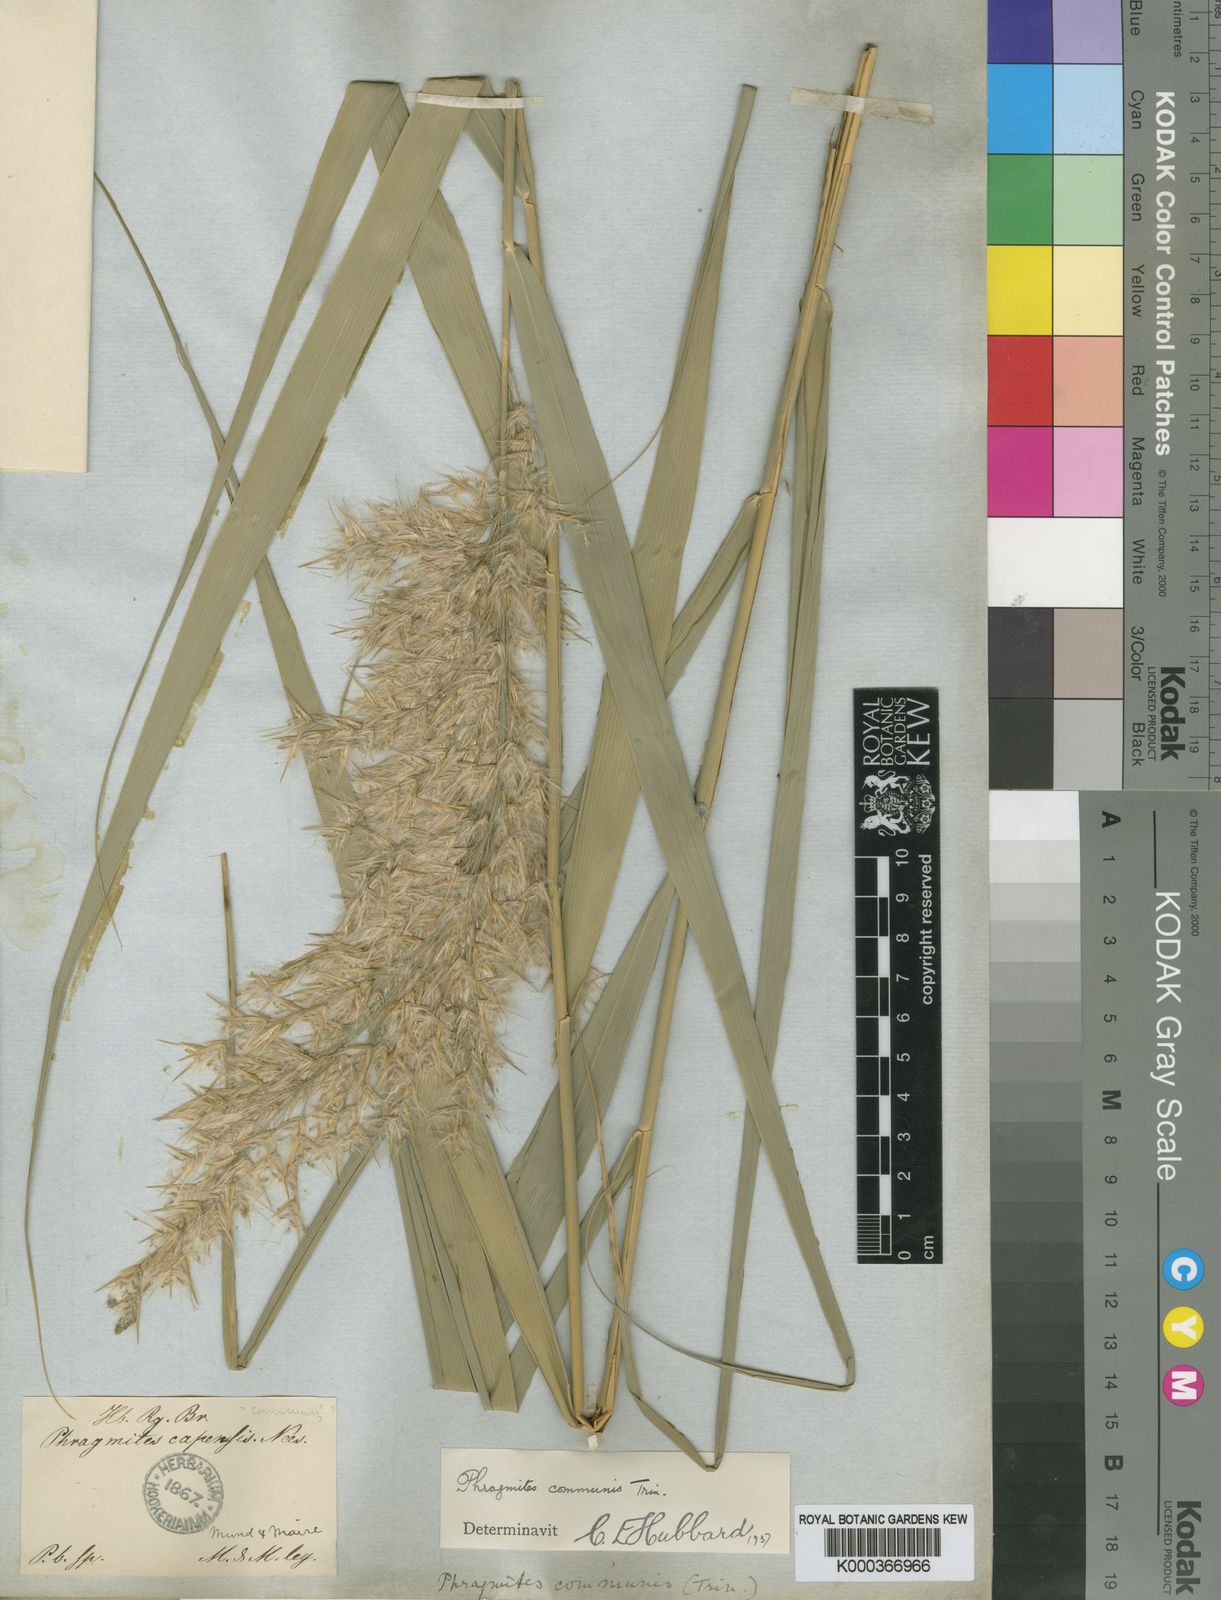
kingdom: Plantae
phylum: Tracheophyta
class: Liliopsida
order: Poales
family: Poaceae
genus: Phragmites
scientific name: Phragmites australis
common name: Common reed
